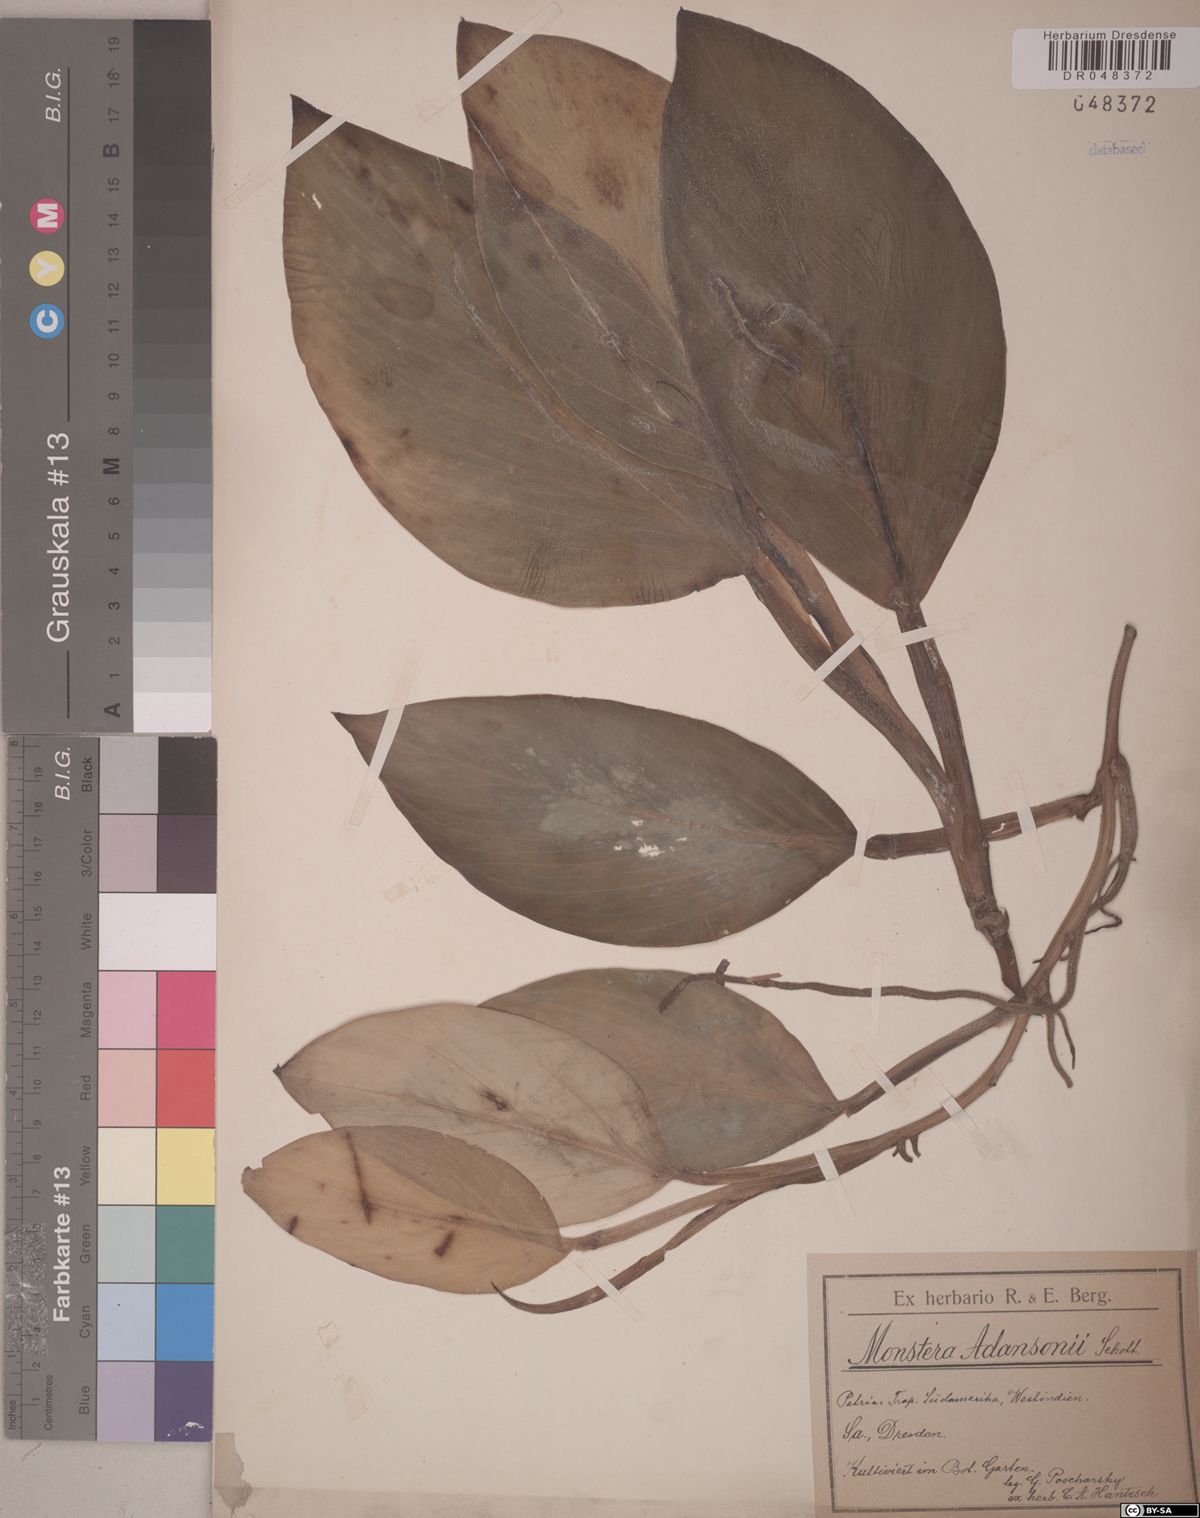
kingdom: Plantae
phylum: Tracheophyta
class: Liliopsida
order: Alismatales
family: Araceae
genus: Monstera
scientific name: Monstera adansonii
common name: Tarovine
